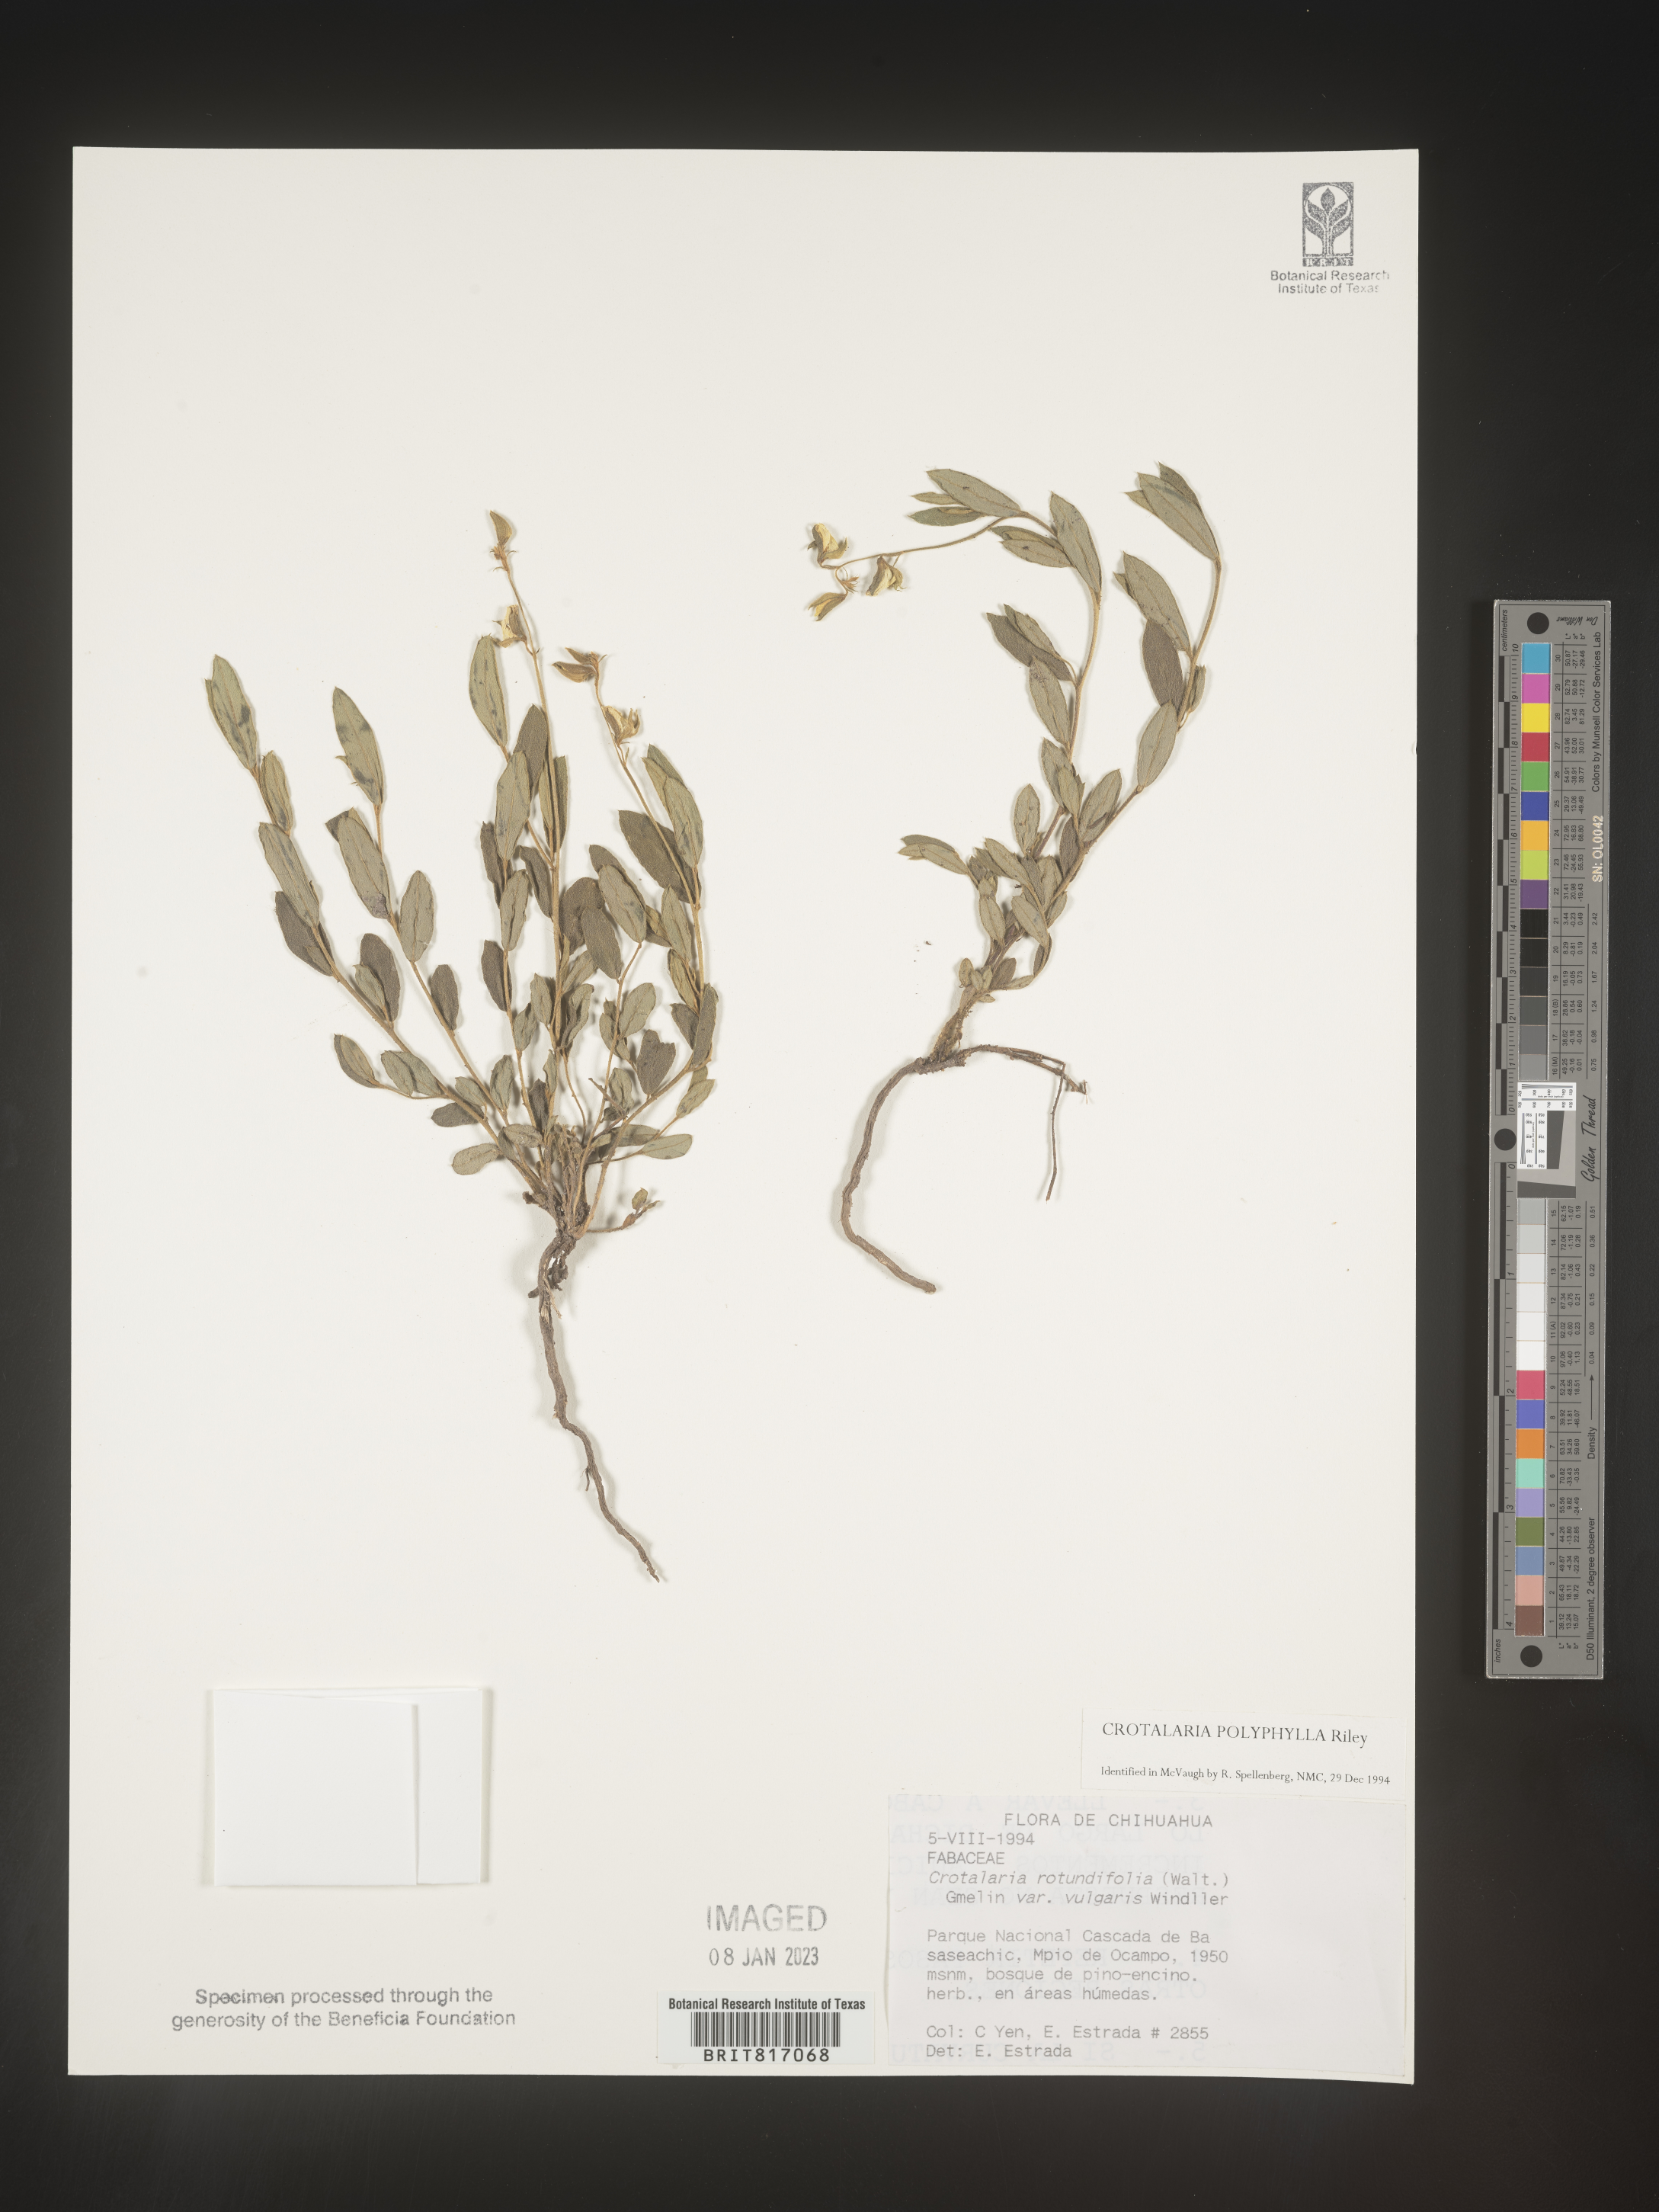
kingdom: Plantae
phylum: Tracheophyta
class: Magnoliopsida
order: Fabales
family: Fabaceae
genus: Crotalaria
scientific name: Crotalaria
